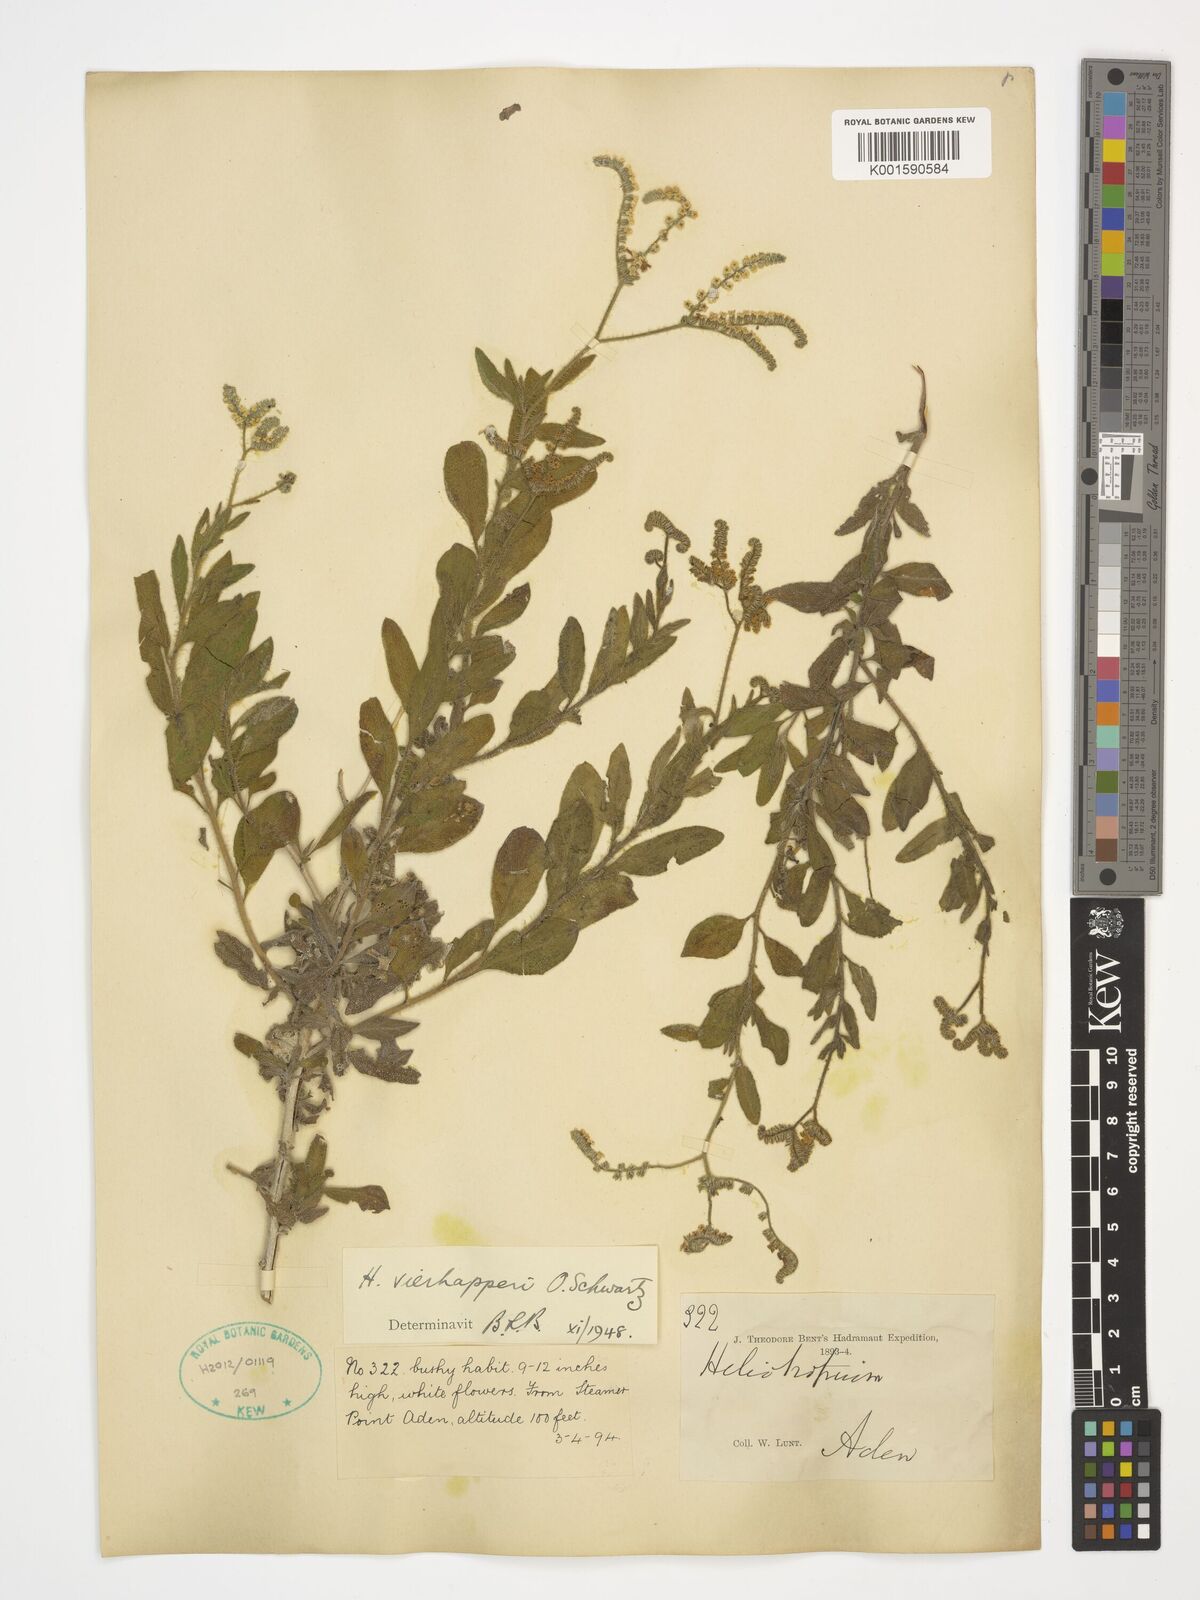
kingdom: Plantae
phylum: Tracheophyta
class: Magnoliopsida
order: Boraginales
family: Heliotropiaceae
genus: Heliotropium
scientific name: Heliotropium ophioglossum
